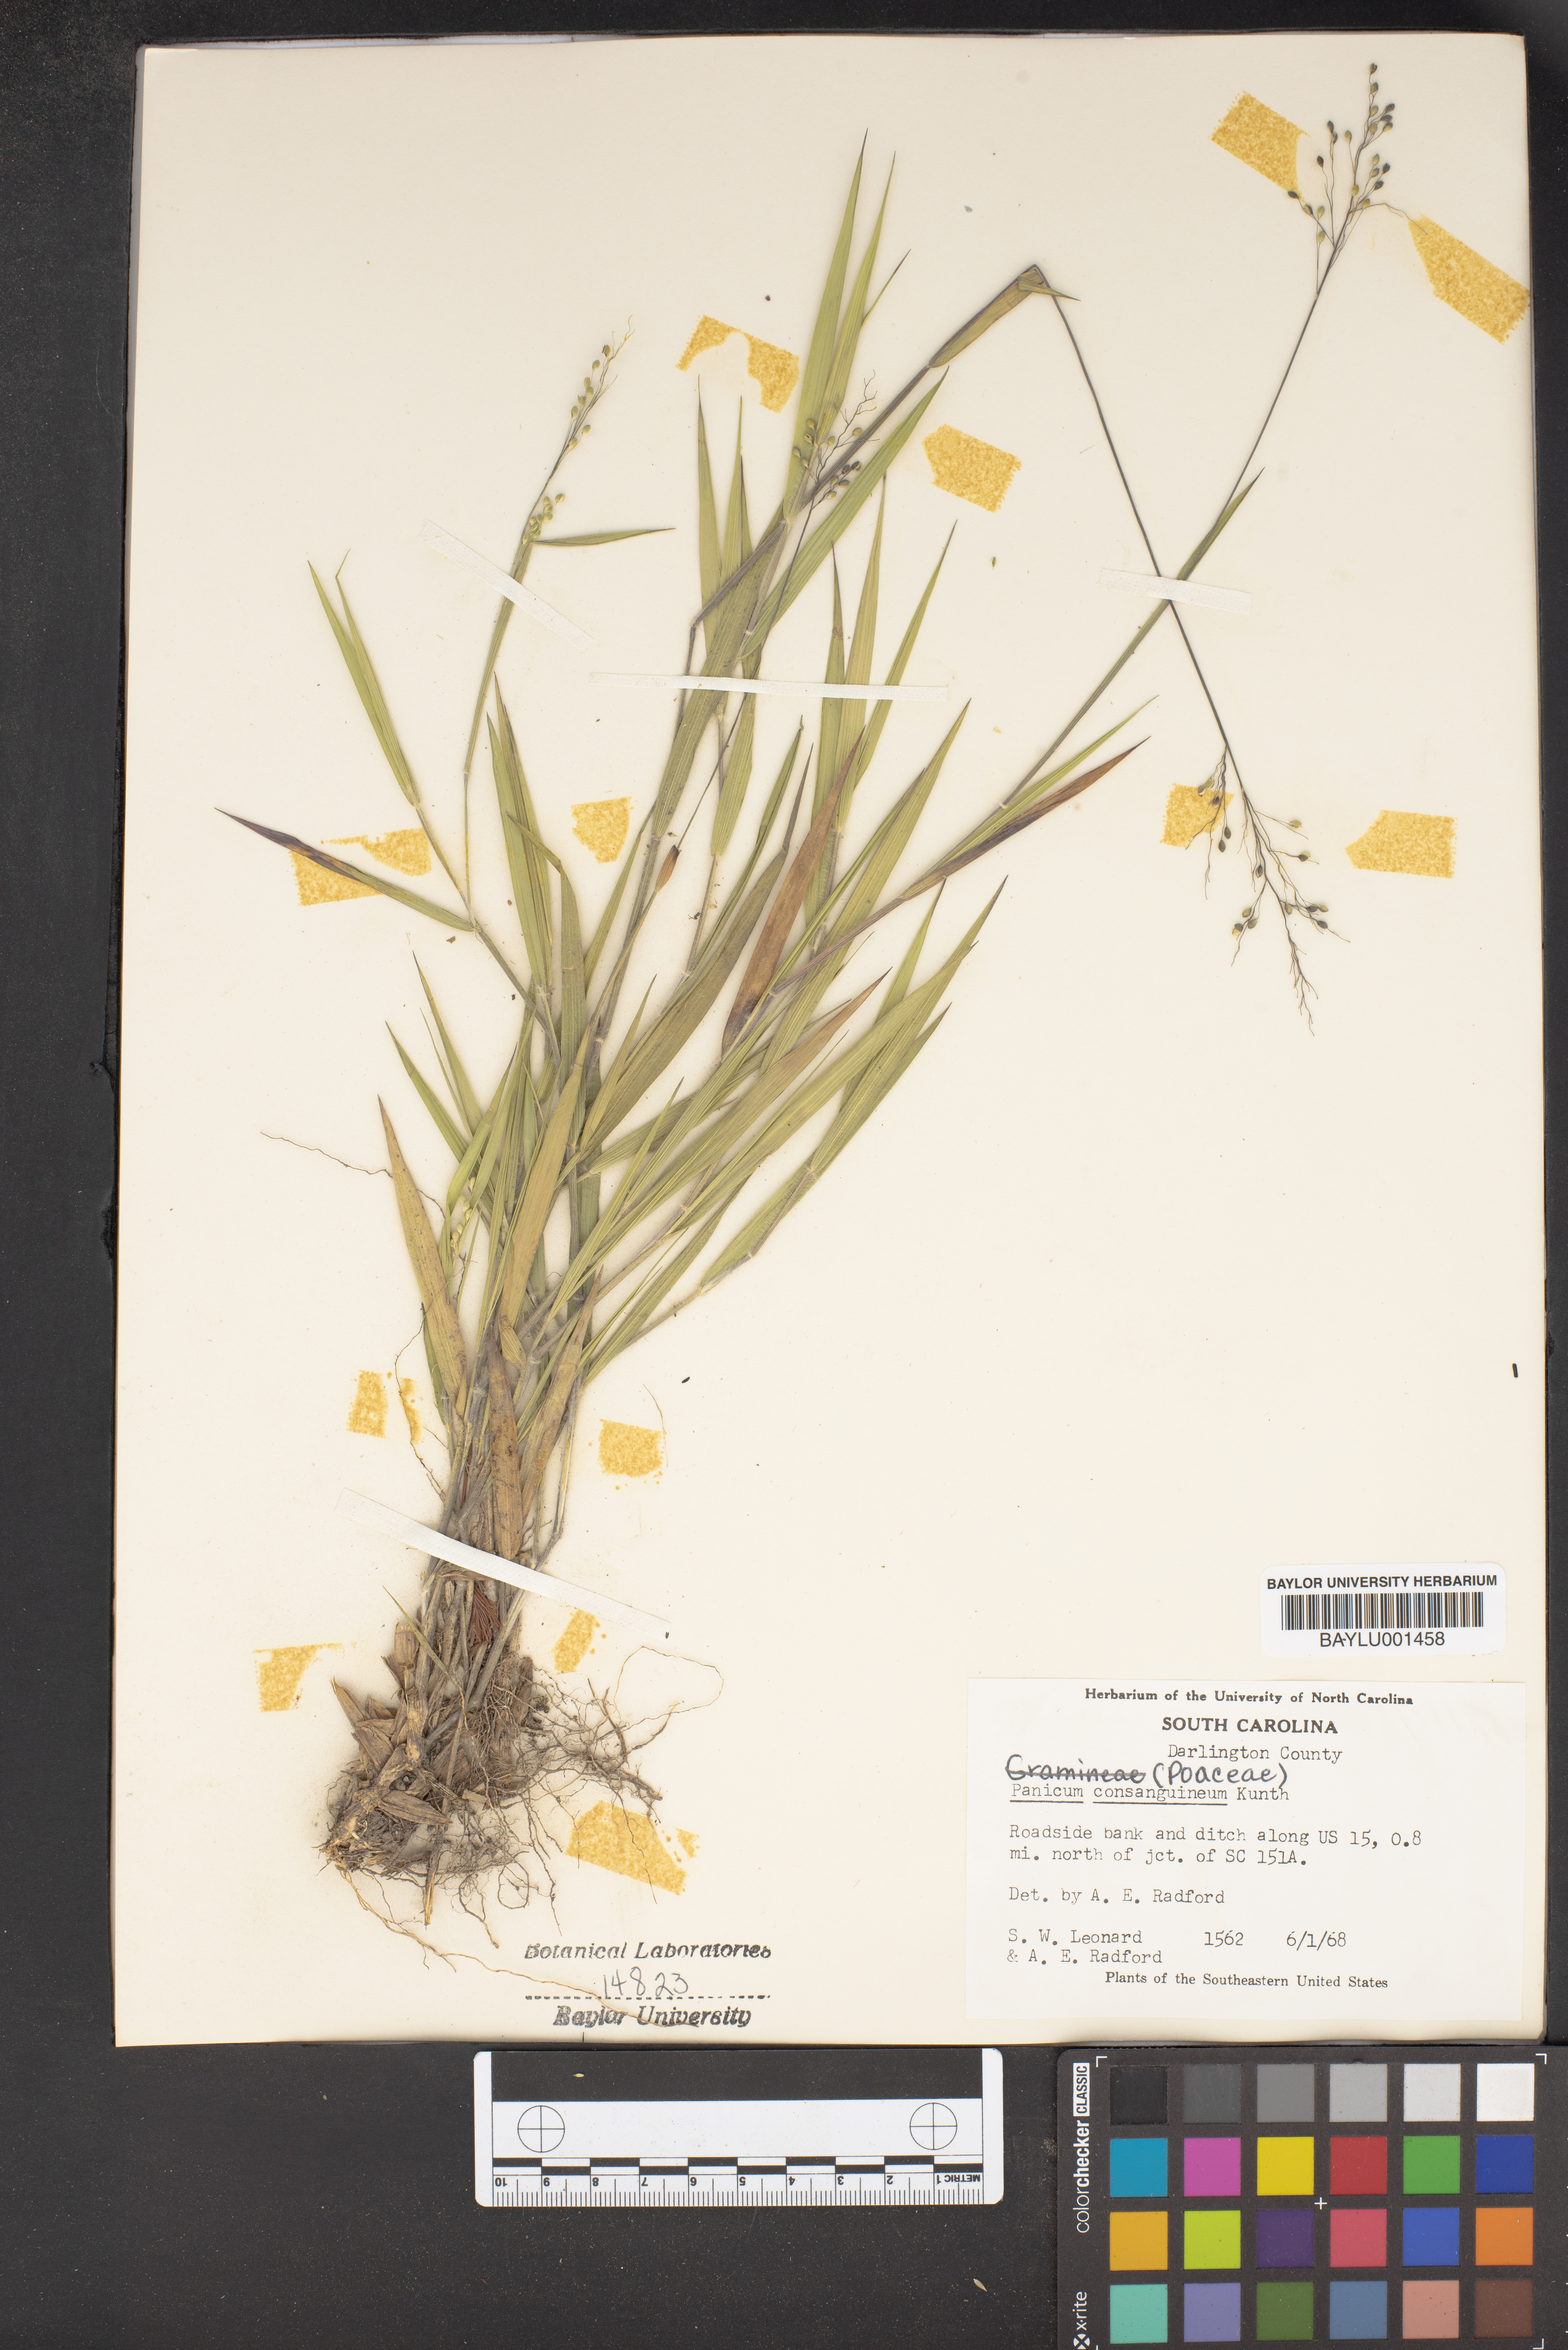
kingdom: Plantae
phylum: Tracheophyta
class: Liliopsida
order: Poales
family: Poaceae
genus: Dichanthelium
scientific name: Dichanthelium consanguineum
